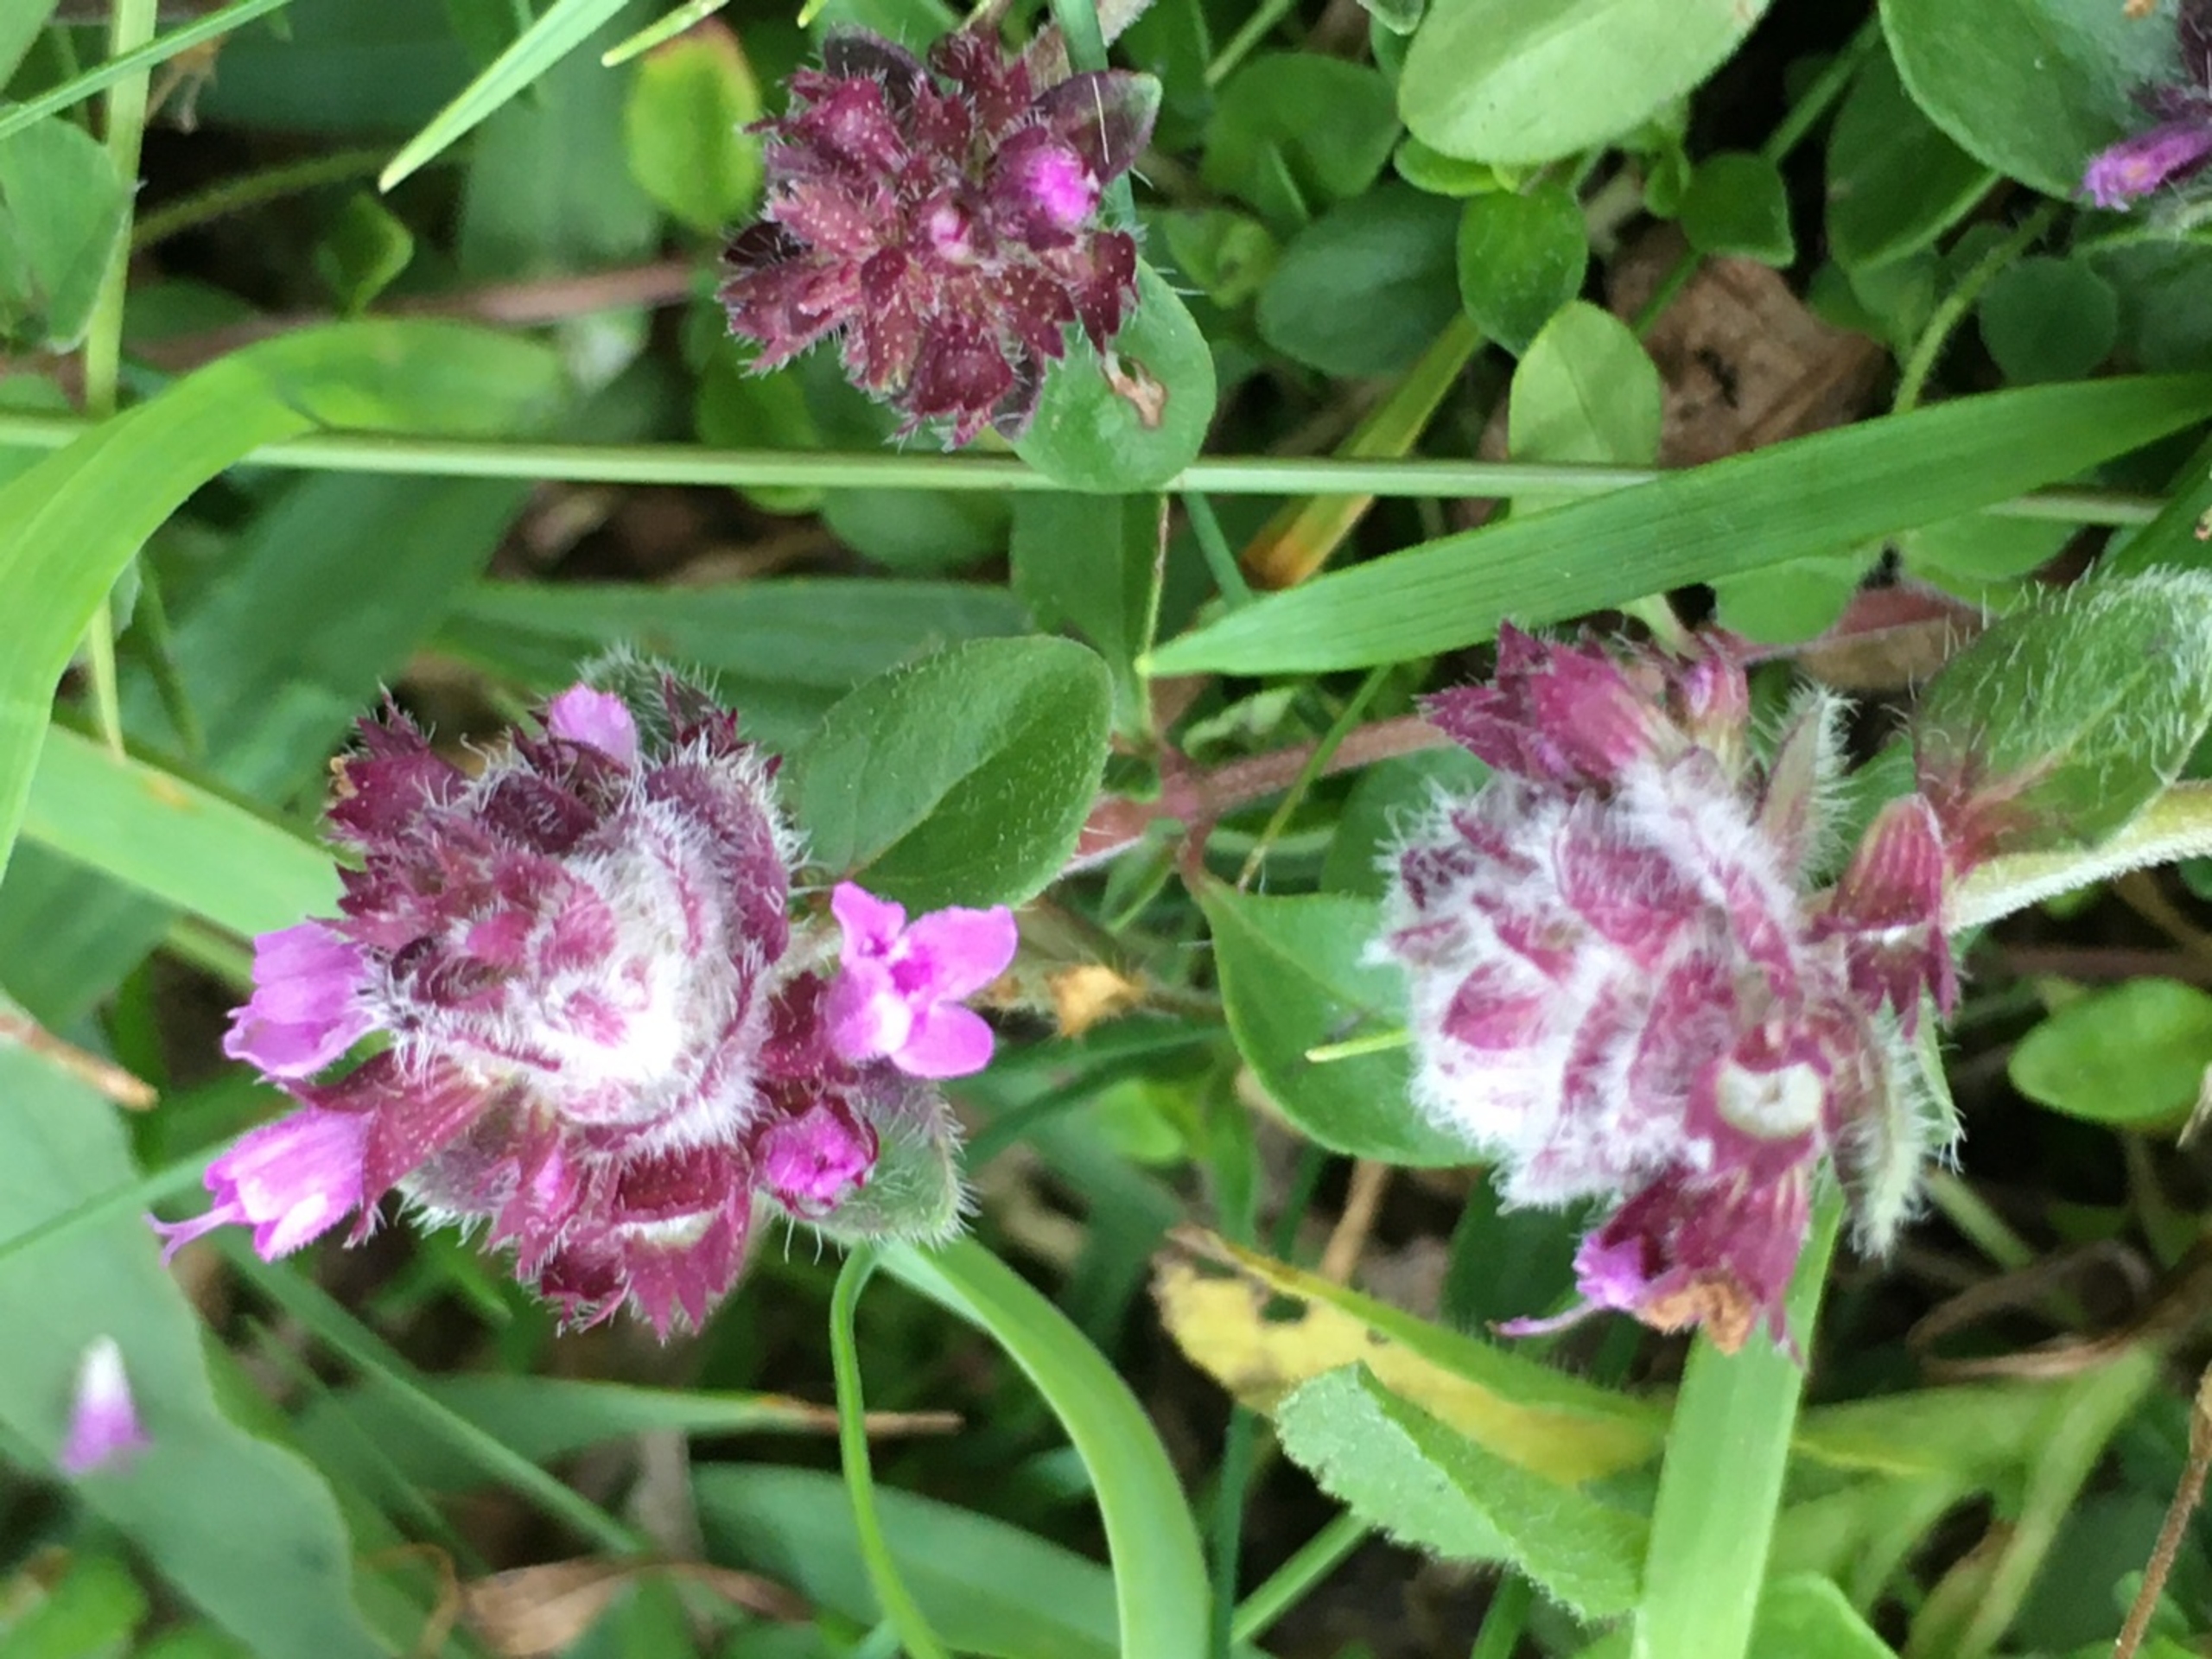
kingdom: Animalia
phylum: Arthropoda
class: Arachnida
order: Trombidiformes
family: Eriophyidae
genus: Aceria
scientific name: Aceria thomasi
